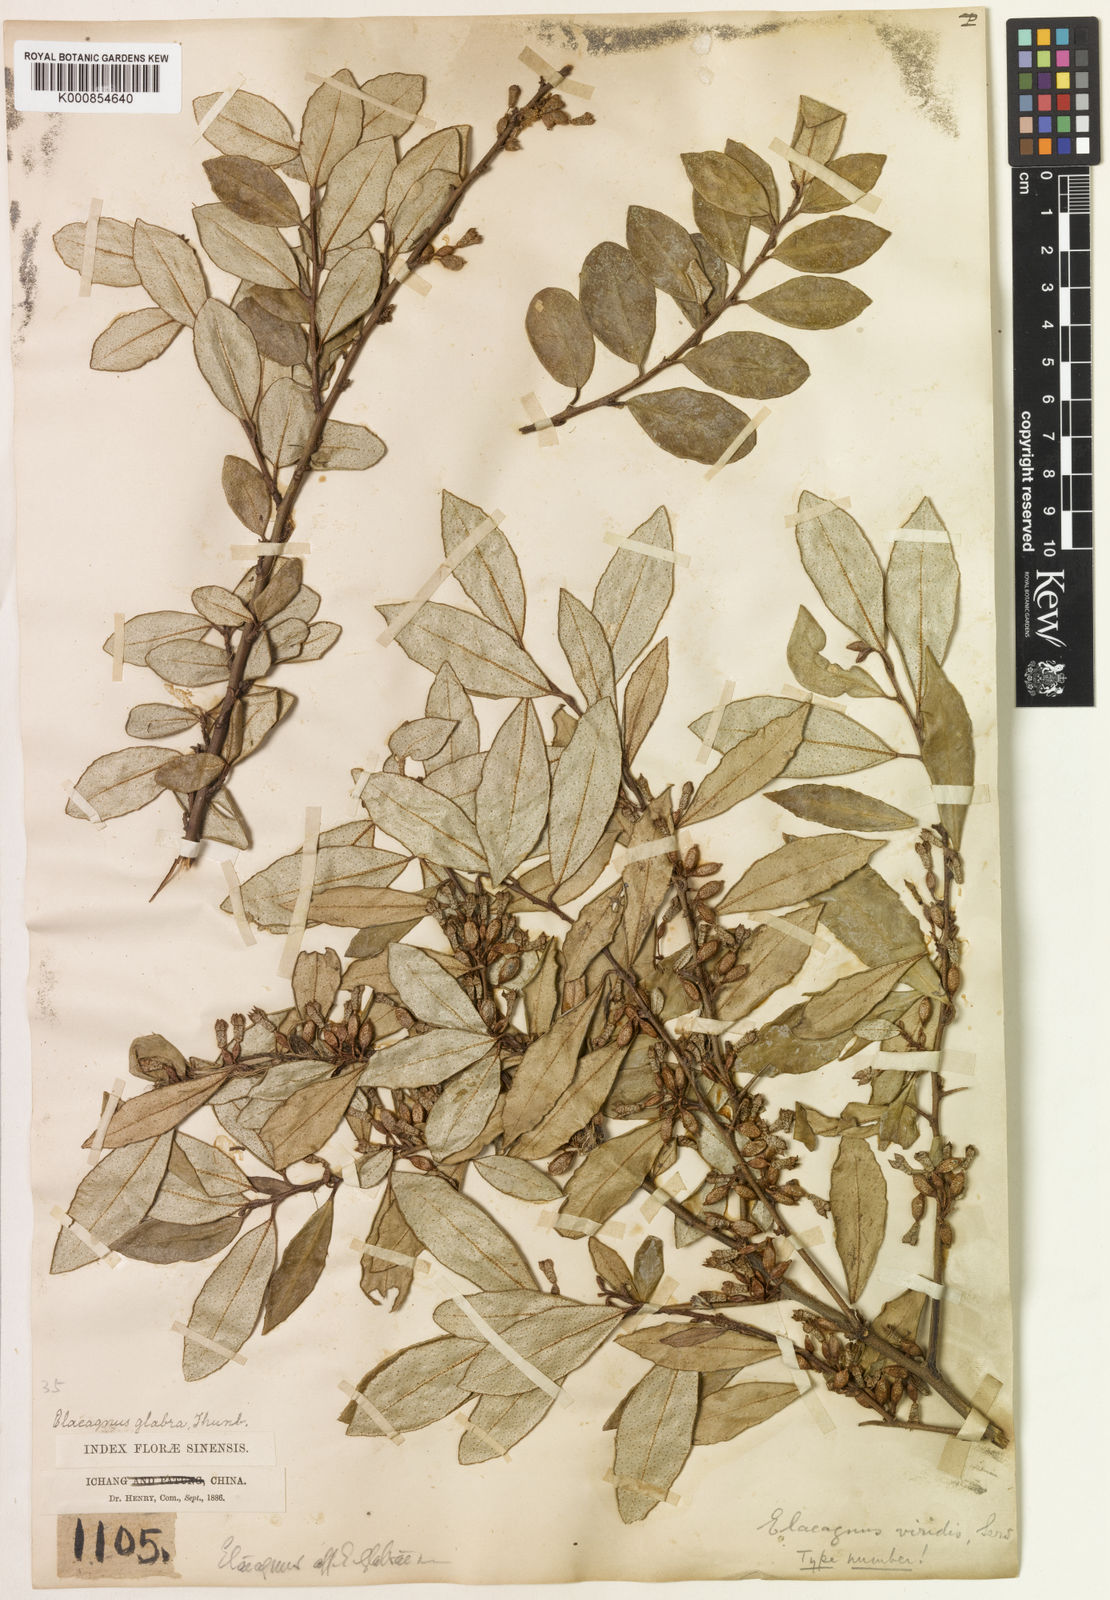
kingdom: Plantae
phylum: Tracheophyta
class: Magnoliopsida
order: Rosales
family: Elaeagnaceae
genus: Elaeagnus
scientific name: Elaeagnus viridis
